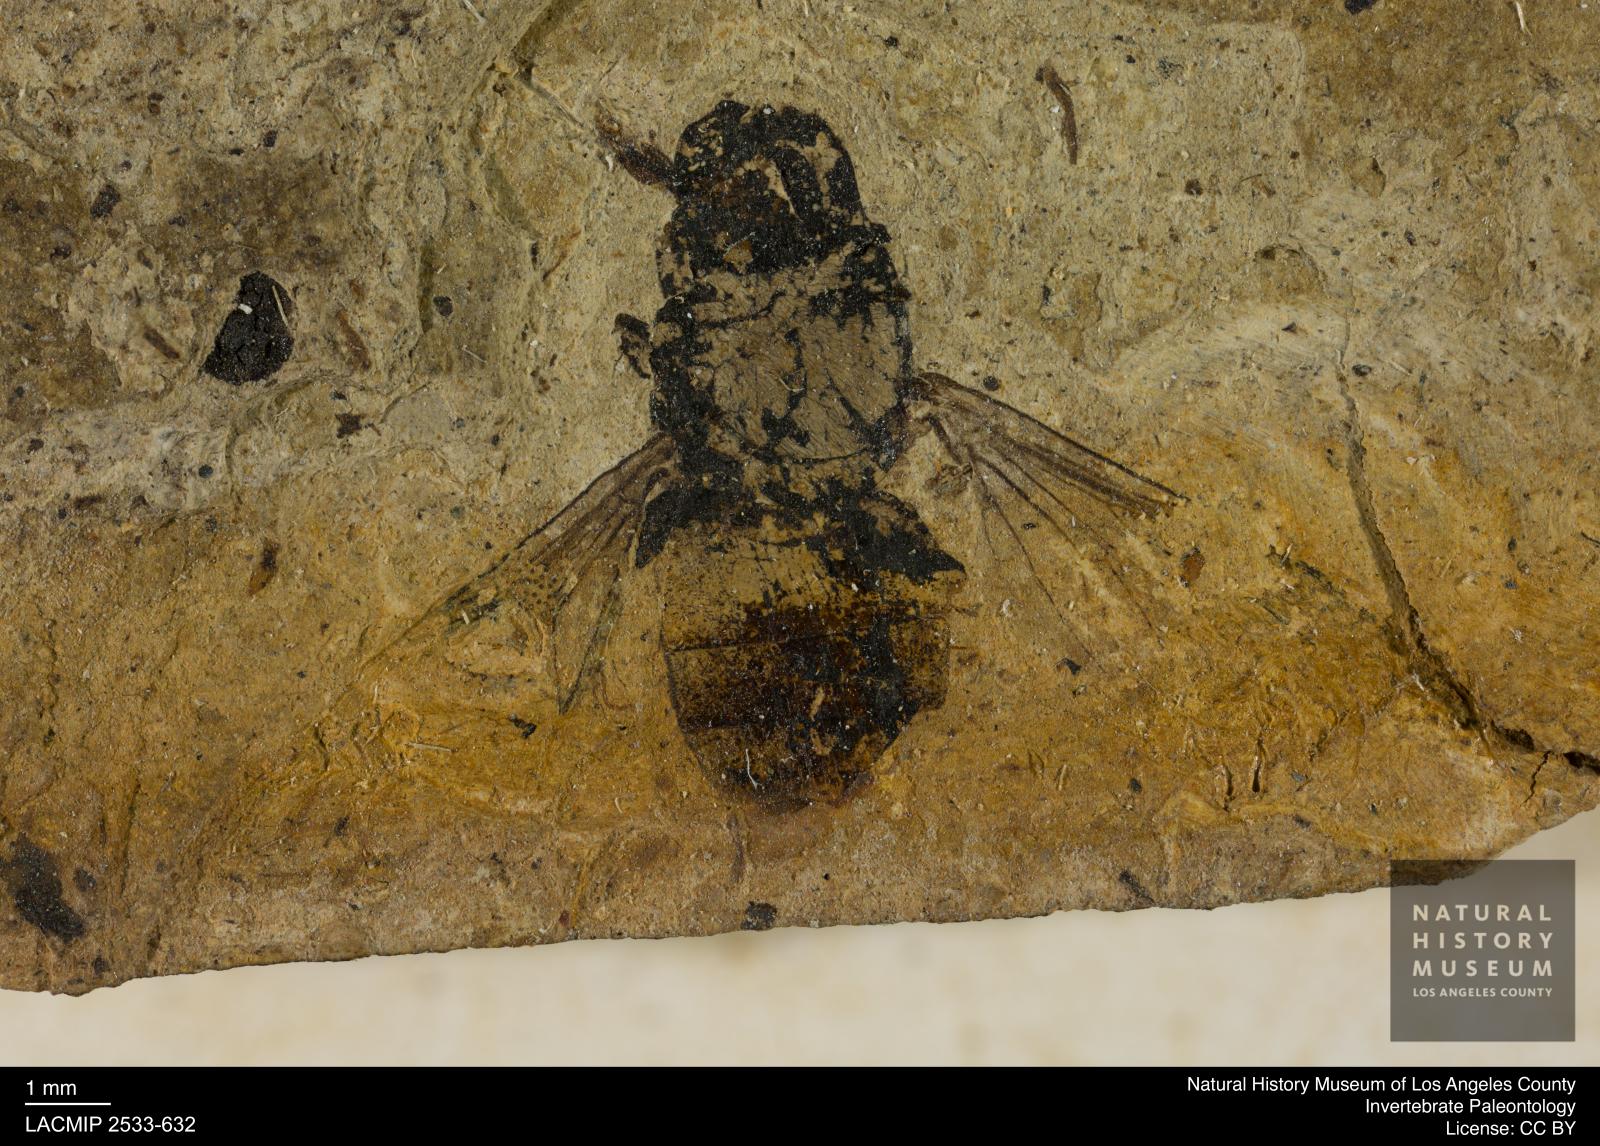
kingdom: Animalia
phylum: Arthropoda
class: Insecta
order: Diptera
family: Syrphidae
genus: Syrphus
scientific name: Syrphus statzi
